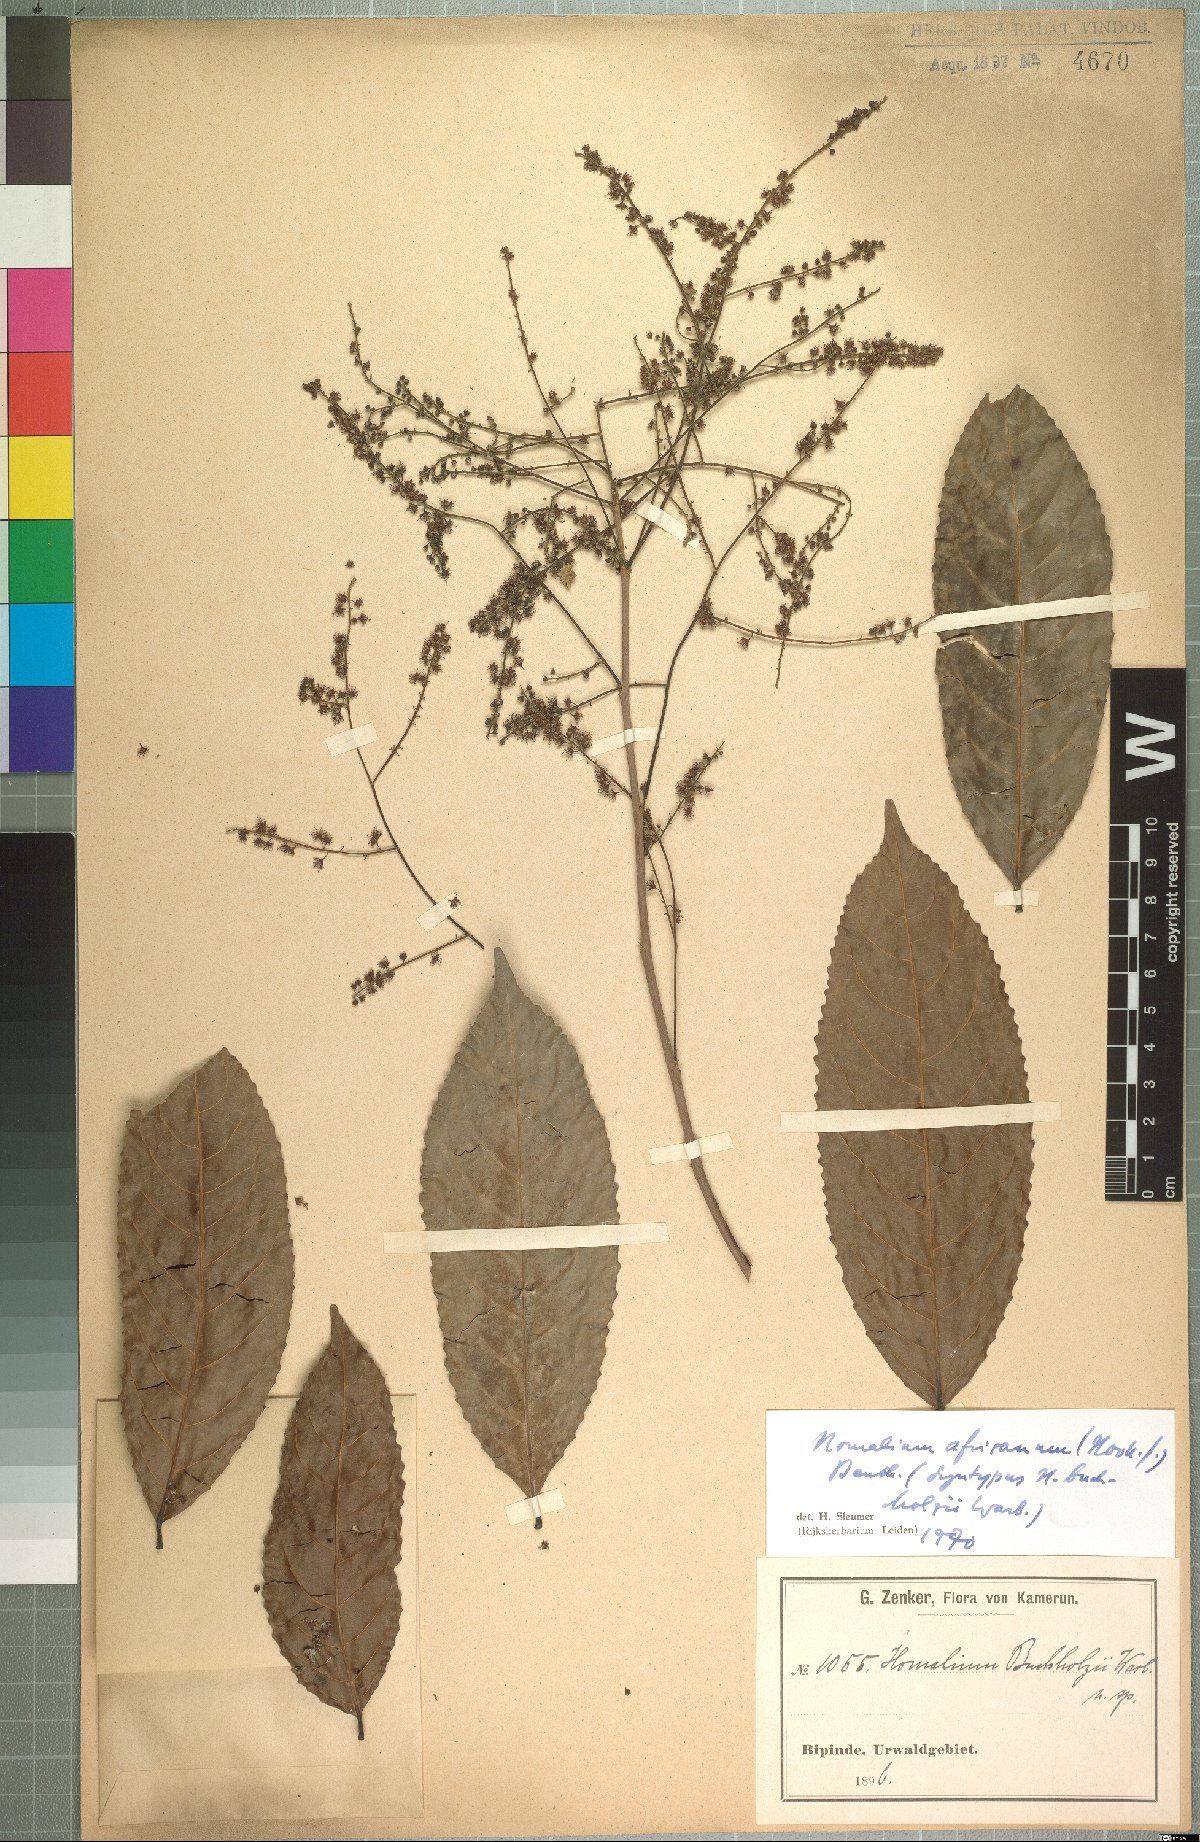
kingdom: Plantae
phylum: Tracheophyta
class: Magnoliopsida
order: Malpighiales
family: Salicaceae
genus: Homalium
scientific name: Homalium africanum
